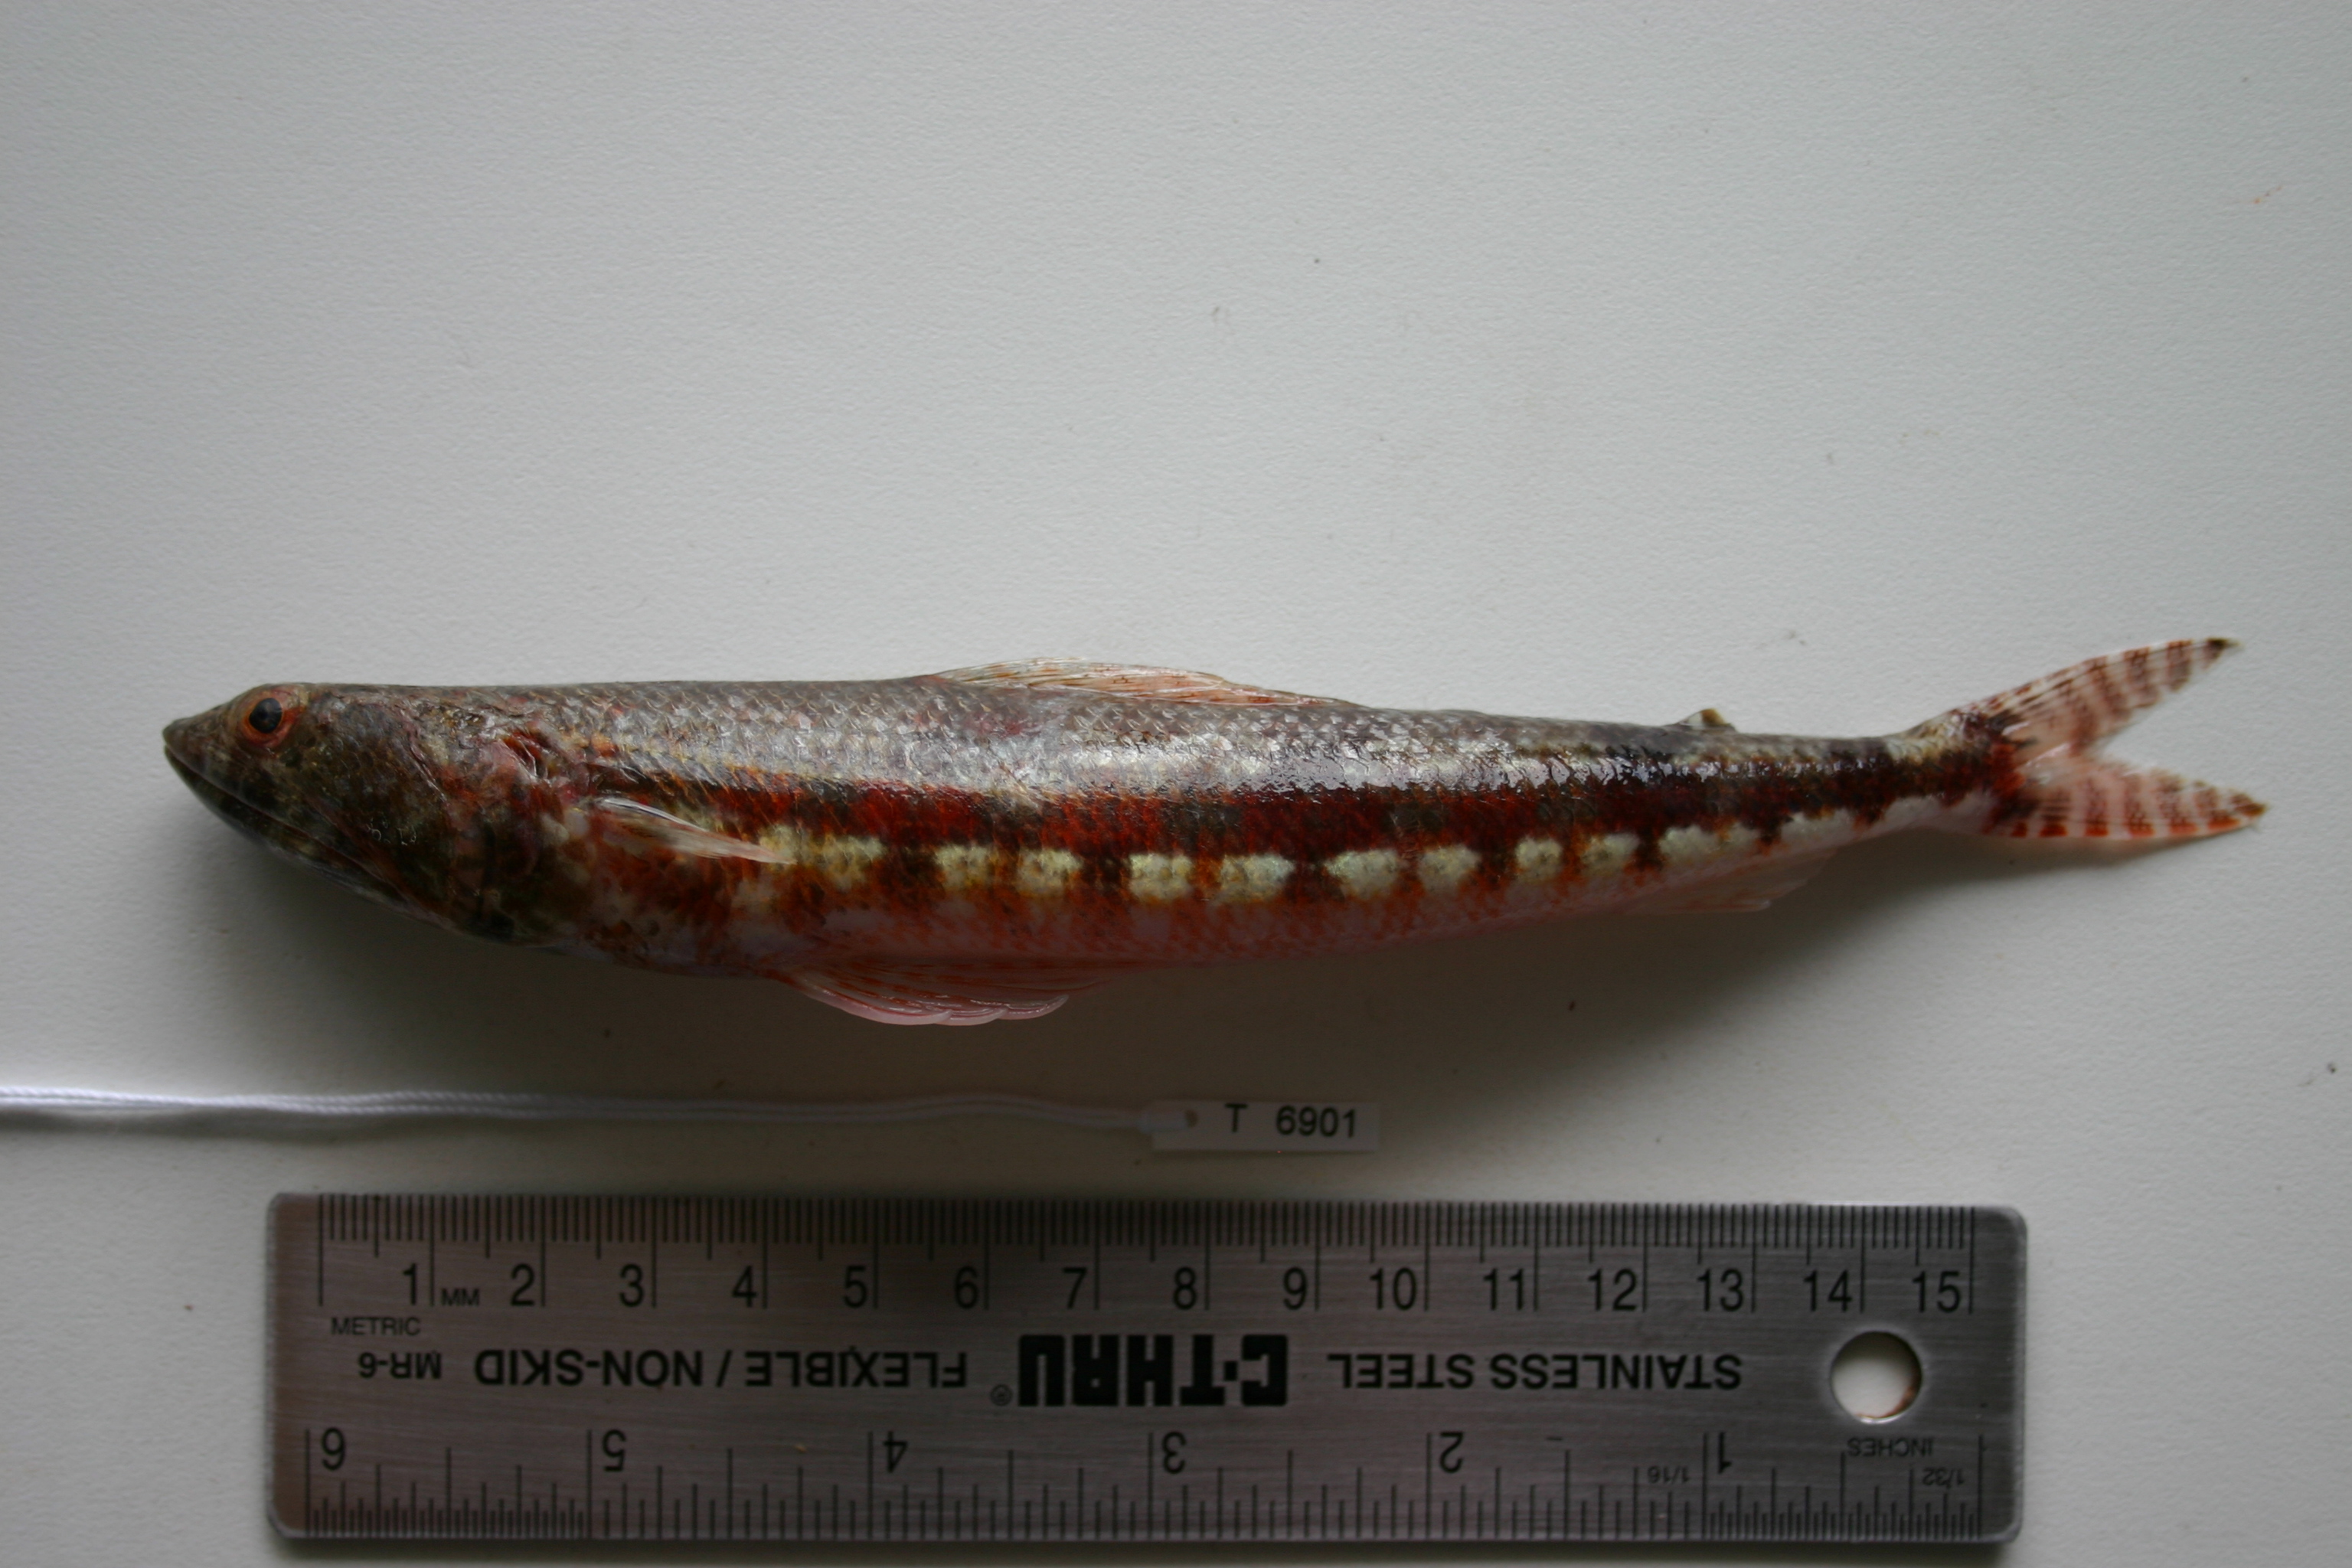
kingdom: Animalia
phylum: Chordata
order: Aulopiformes
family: Synodontidae
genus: Synodus
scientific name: Synodus variegatus
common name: Variegated lizardfish
